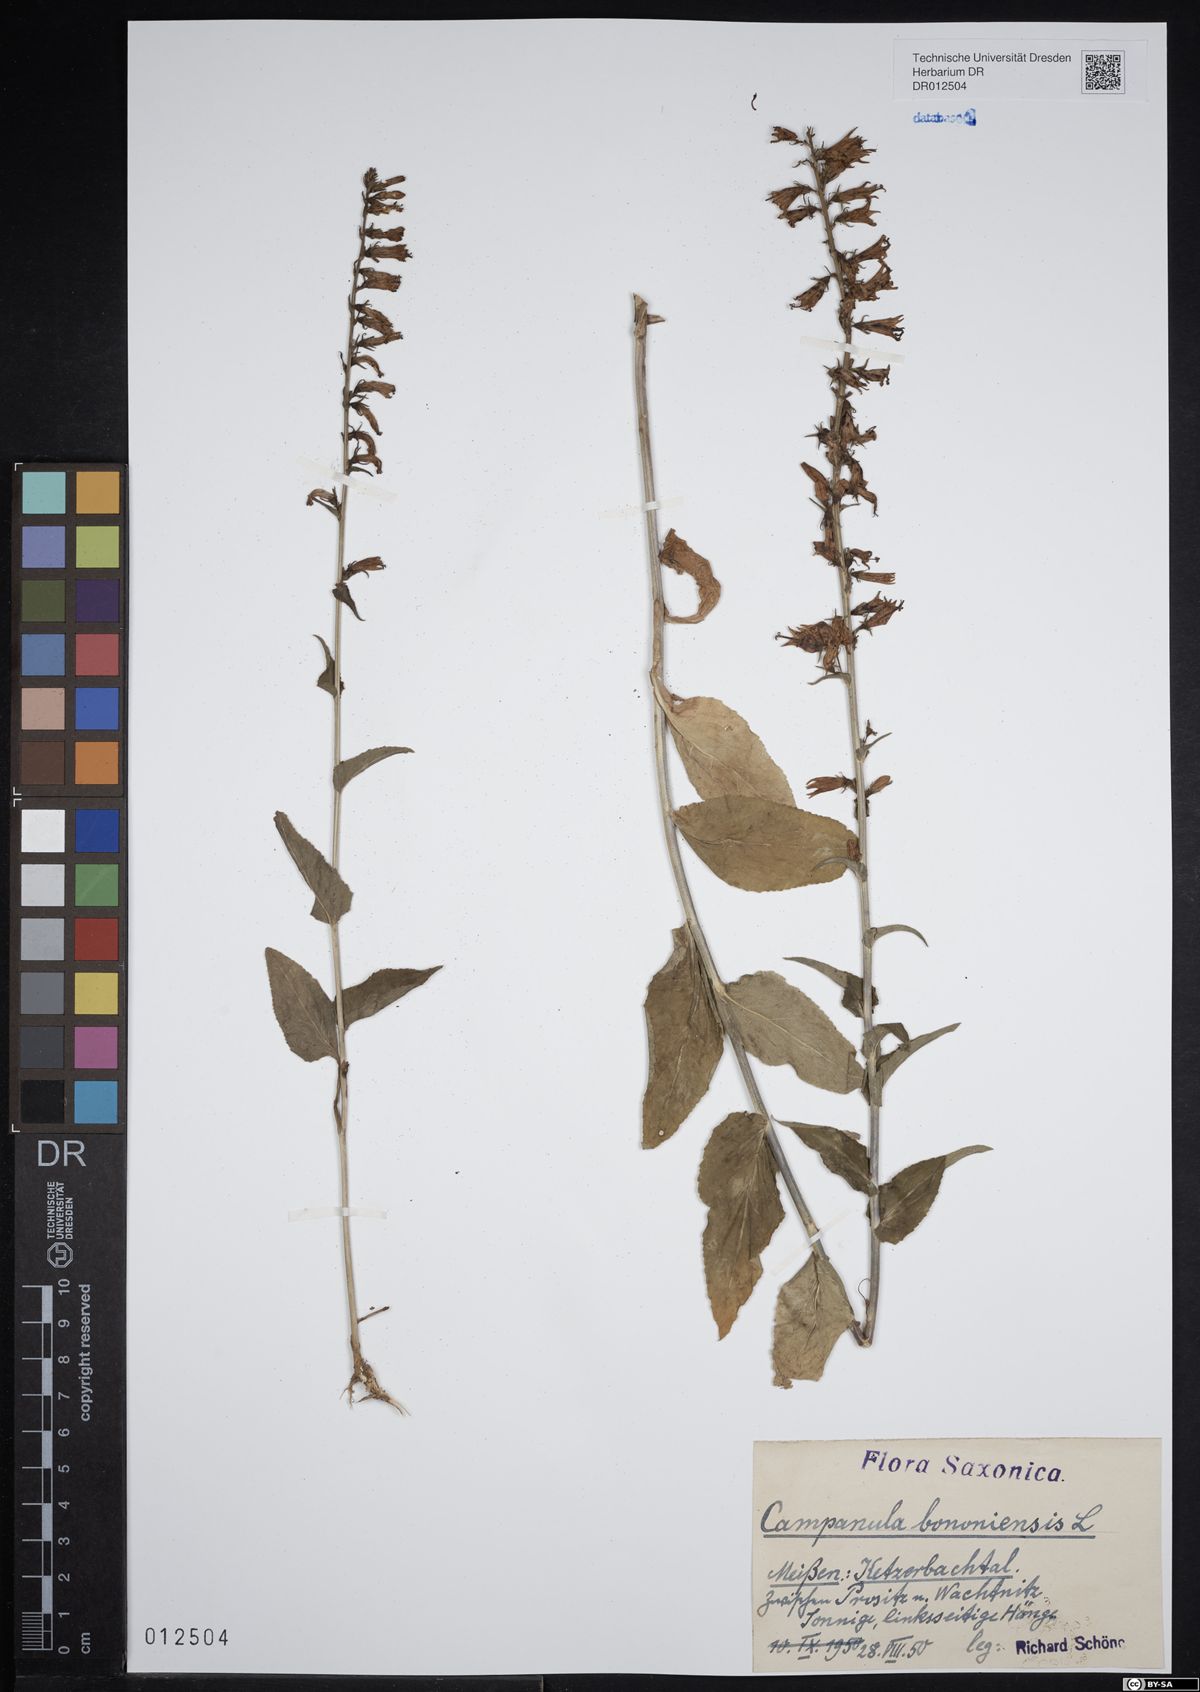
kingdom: Plantae
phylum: Tracheophyta
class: Magnoliopsida
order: Asterales
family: Campanulaceae
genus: Campanula
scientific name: Campanula bononiensis
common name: Pale bellflower
